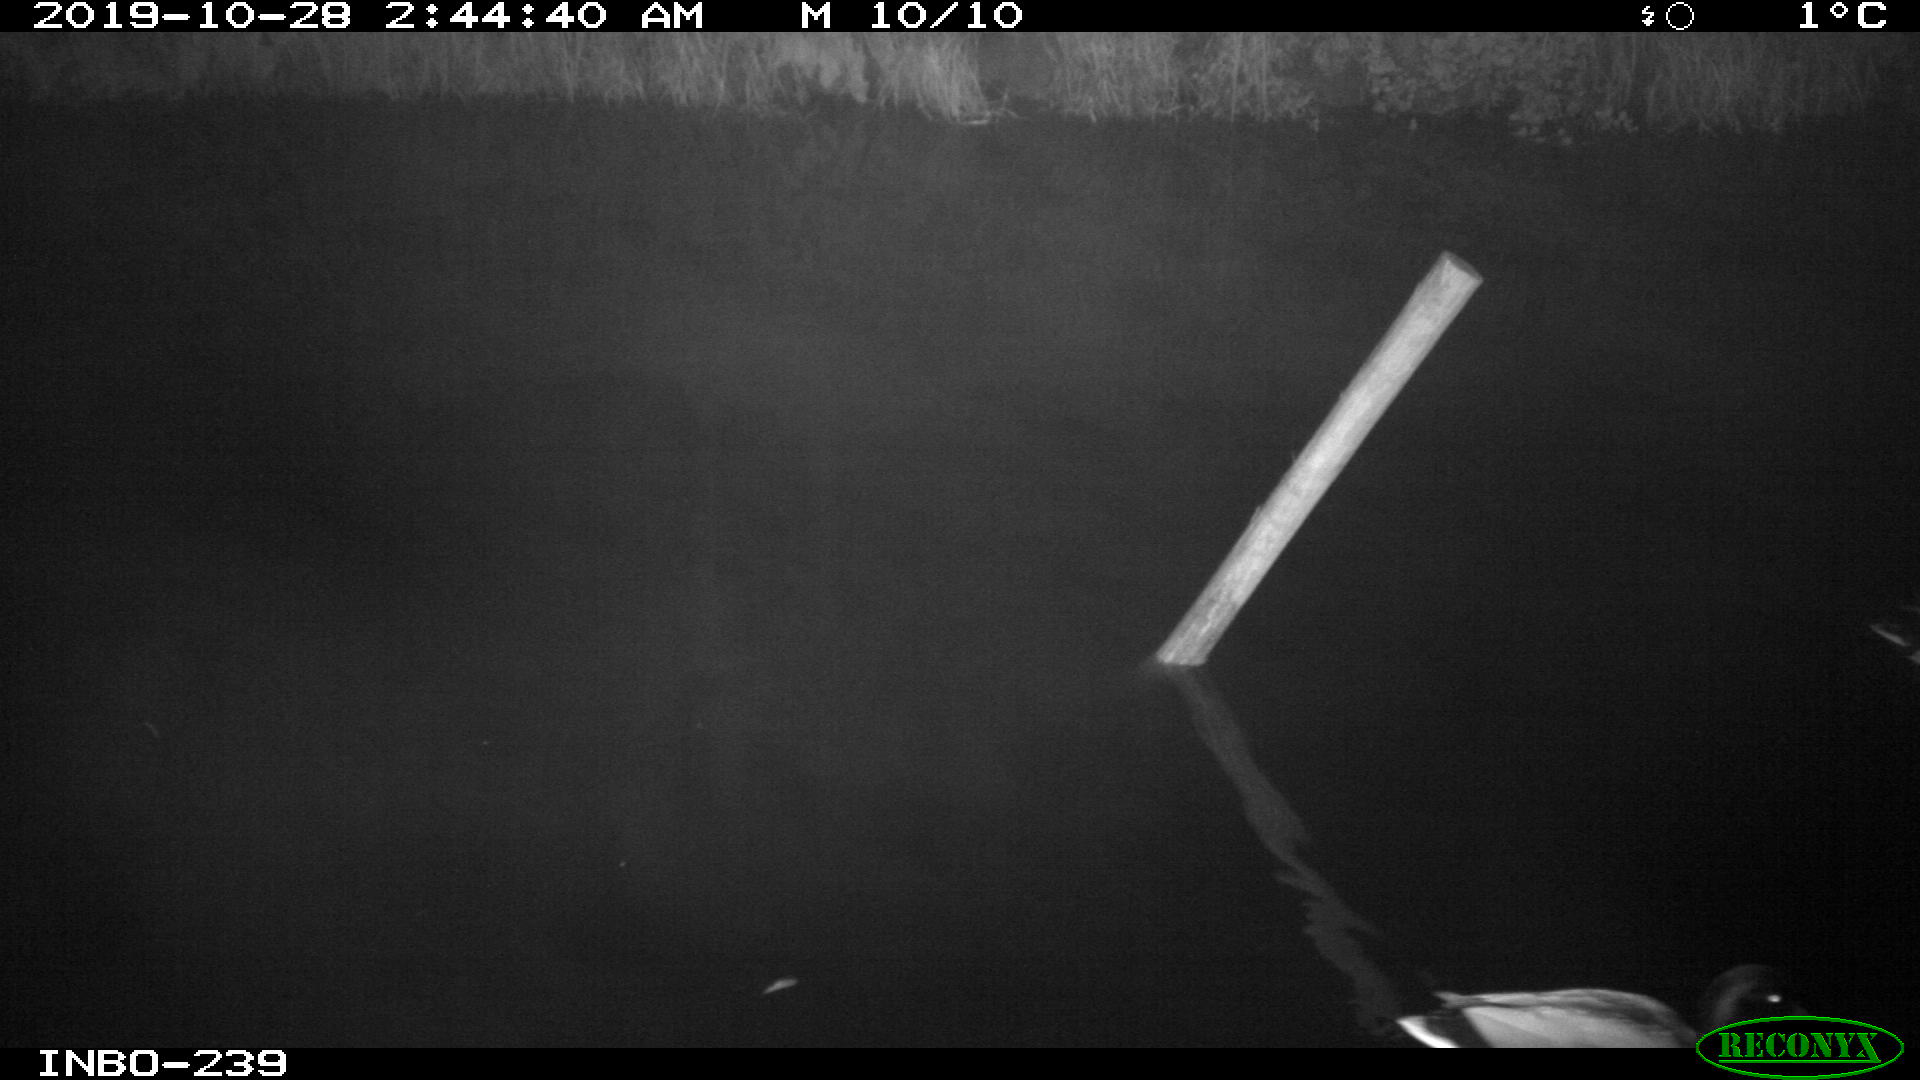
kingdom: Animalia
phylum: Chordata
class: Aves
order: Anseriformes
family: Anatidae
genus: Anas
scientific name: Anas platyrhynchos
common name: Mallard
